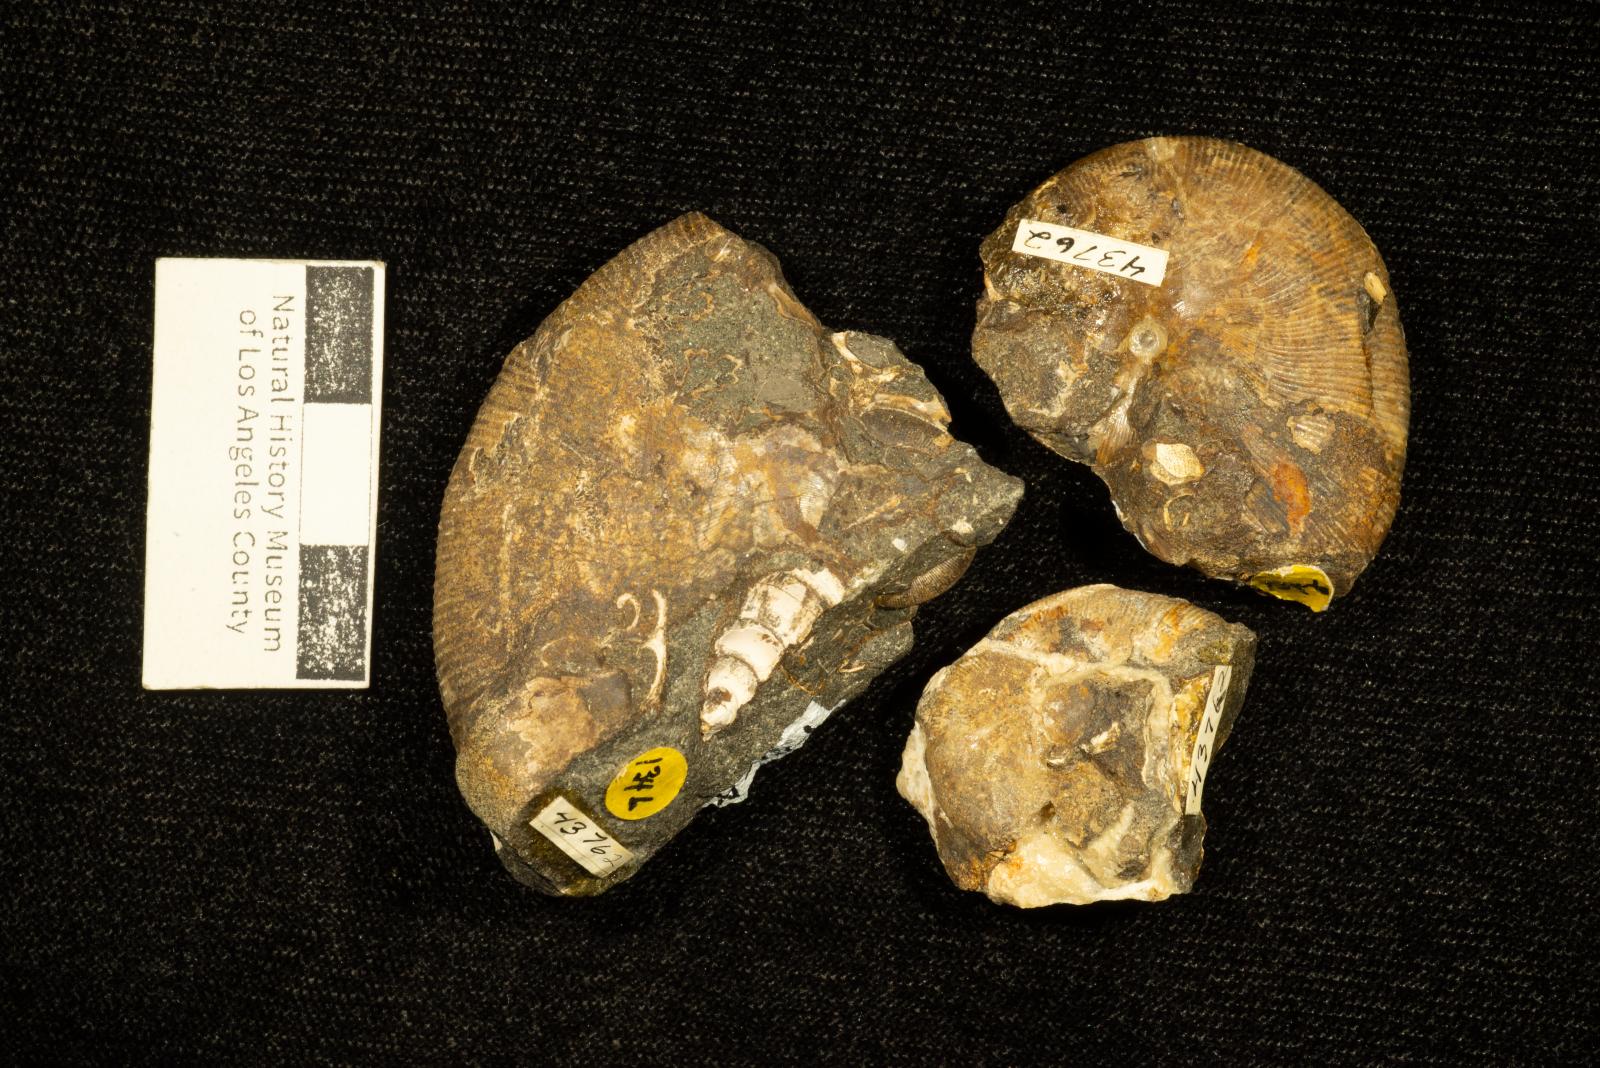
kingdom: Animalia
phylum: Mollusca
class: Cephalopoda
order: Phylloceratida
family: Phylloceratidae
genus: Neophylloceras
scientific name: Neophylloceras ramosum
